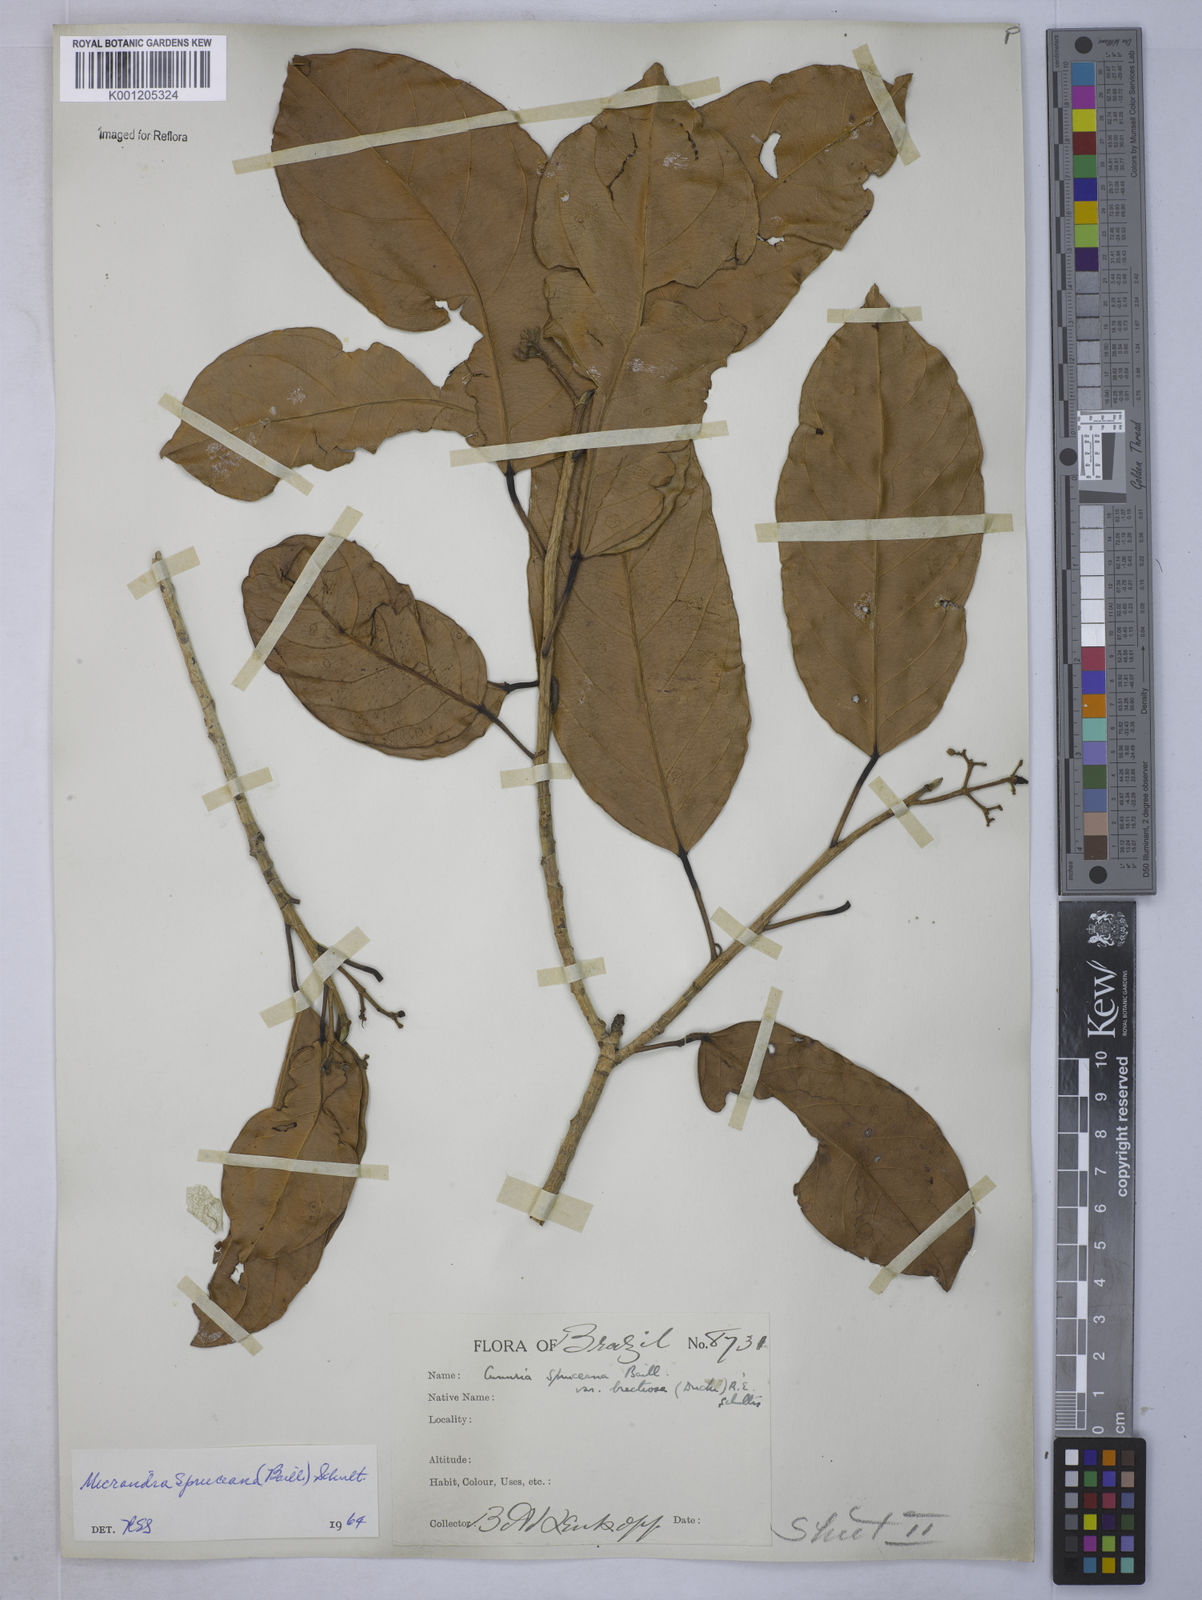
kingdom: Plantae
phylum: Tracheophyta
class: Magnoliopsida
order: Malpighiales
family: Euphorbiaceae
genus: Micrandra
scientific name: Micrandra spruceana
